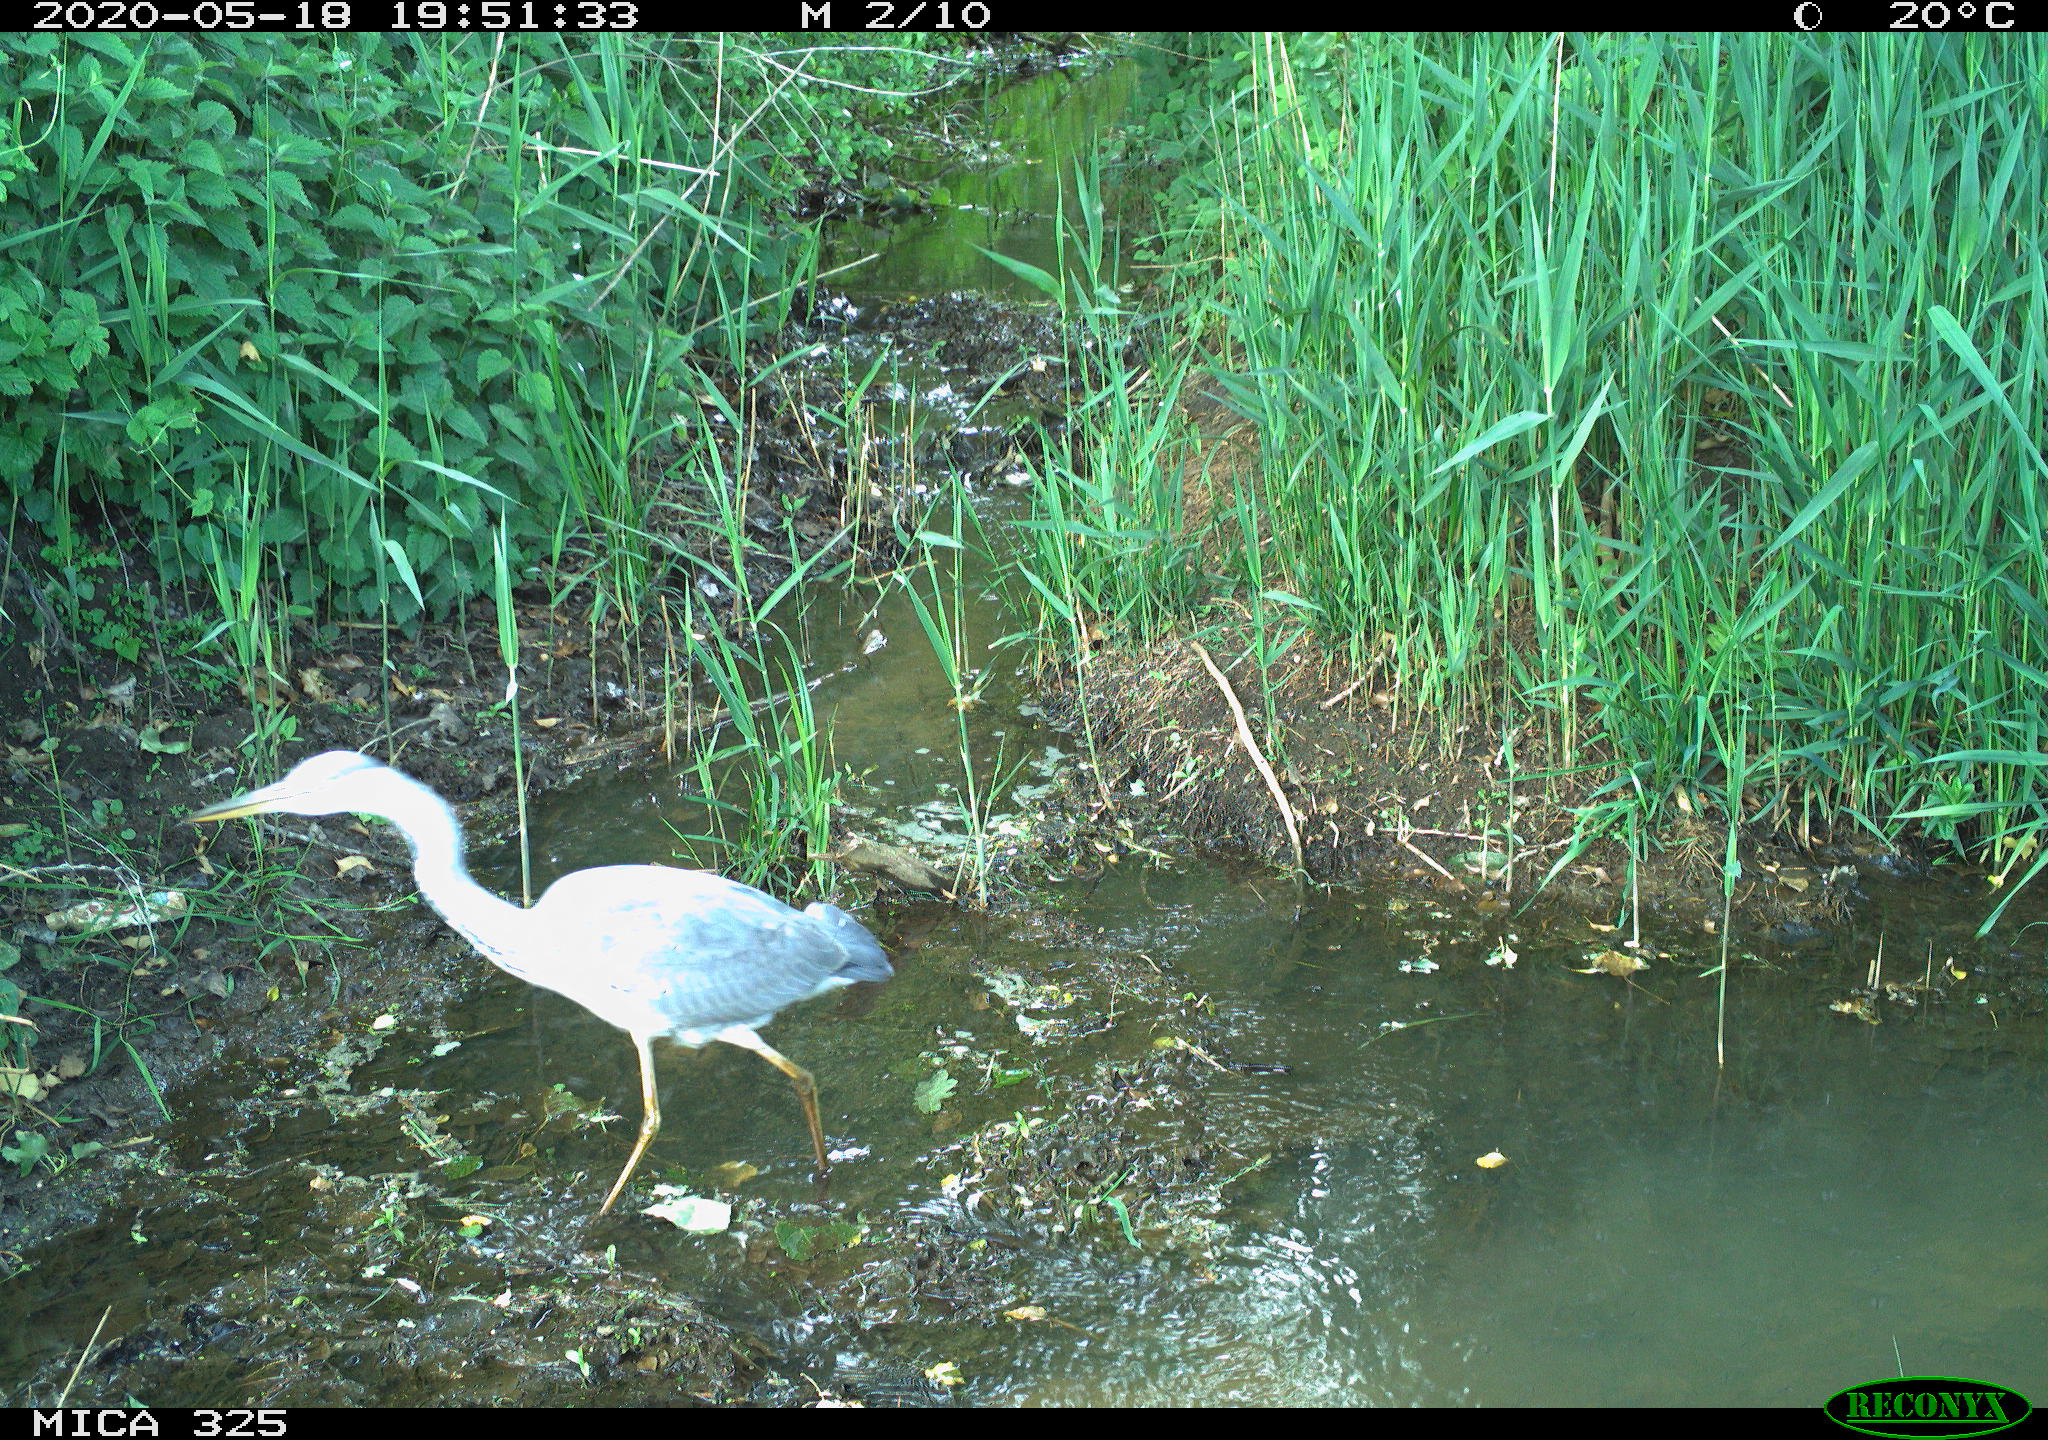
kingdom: Animalia
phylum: Chordata
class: Aves
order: Pelecaniformes
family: Ardeidae
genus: Ardea
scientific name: Ardea cinerea
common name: Grey heron
